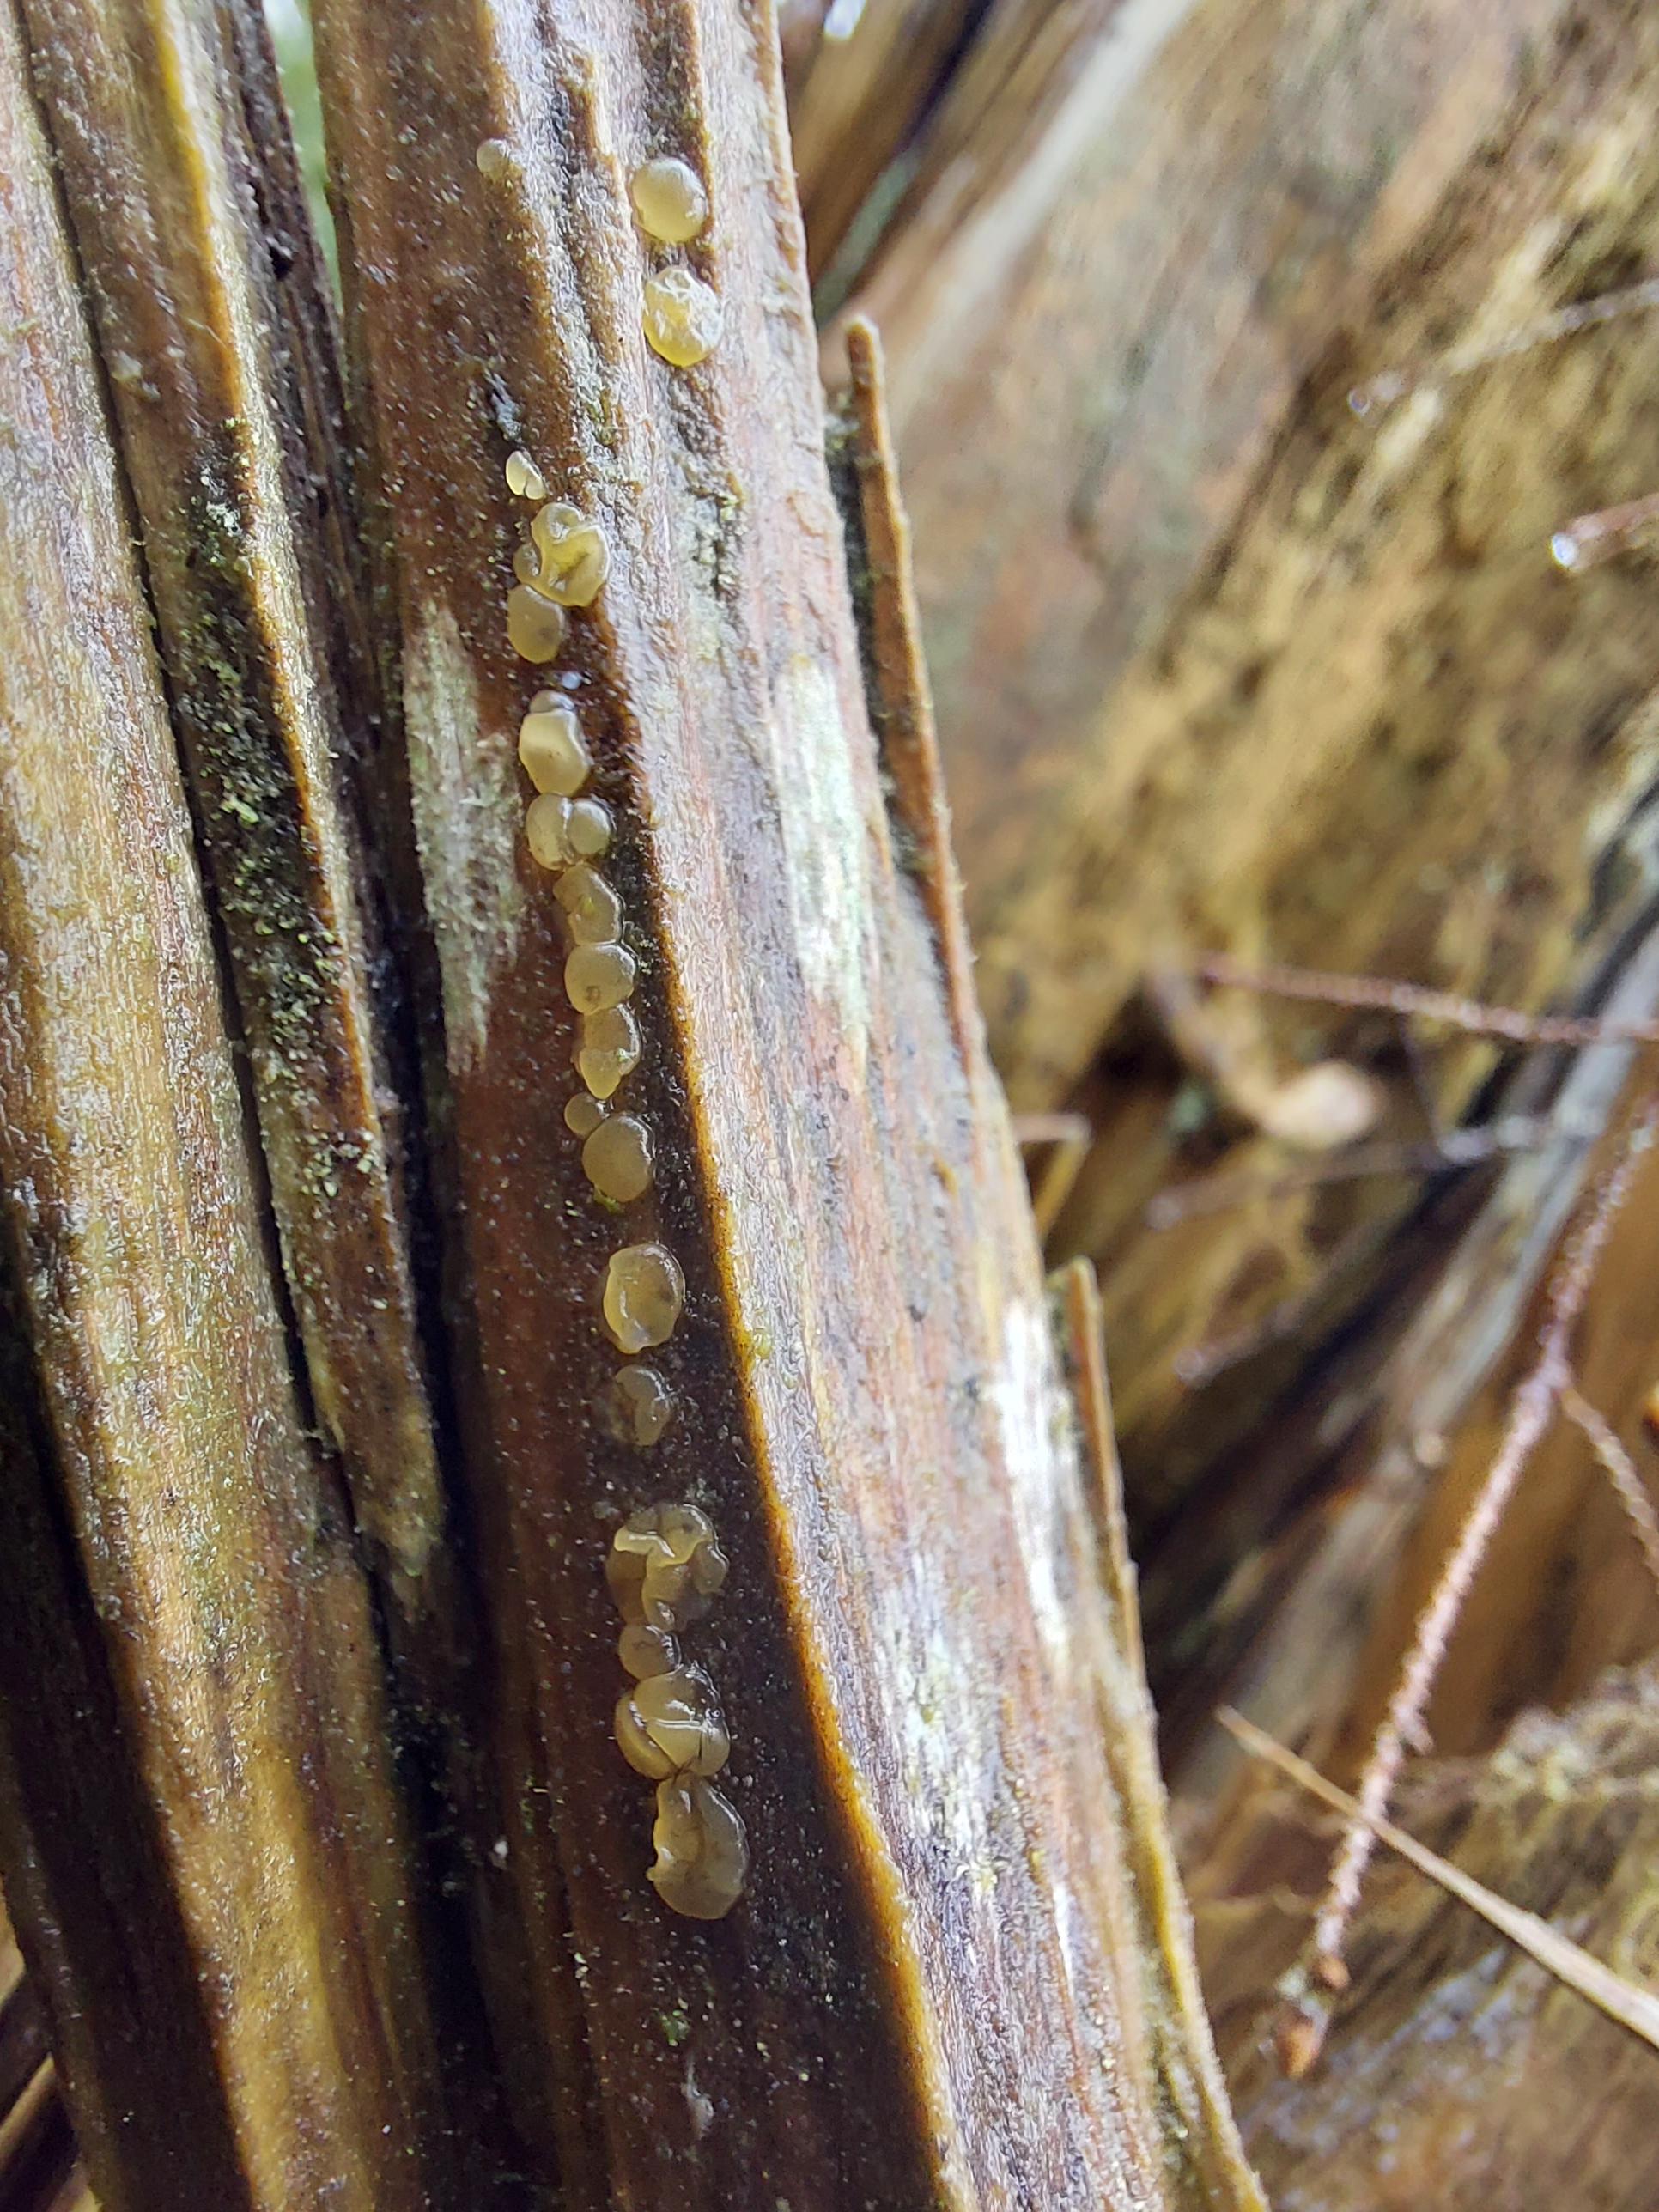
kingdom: Fungi
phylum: Basidiomycota
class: Dacrymycetes
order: Dacrymycetales
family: Dacrymycetaceae
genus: Dacrymyces
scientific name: Dacrymyces
